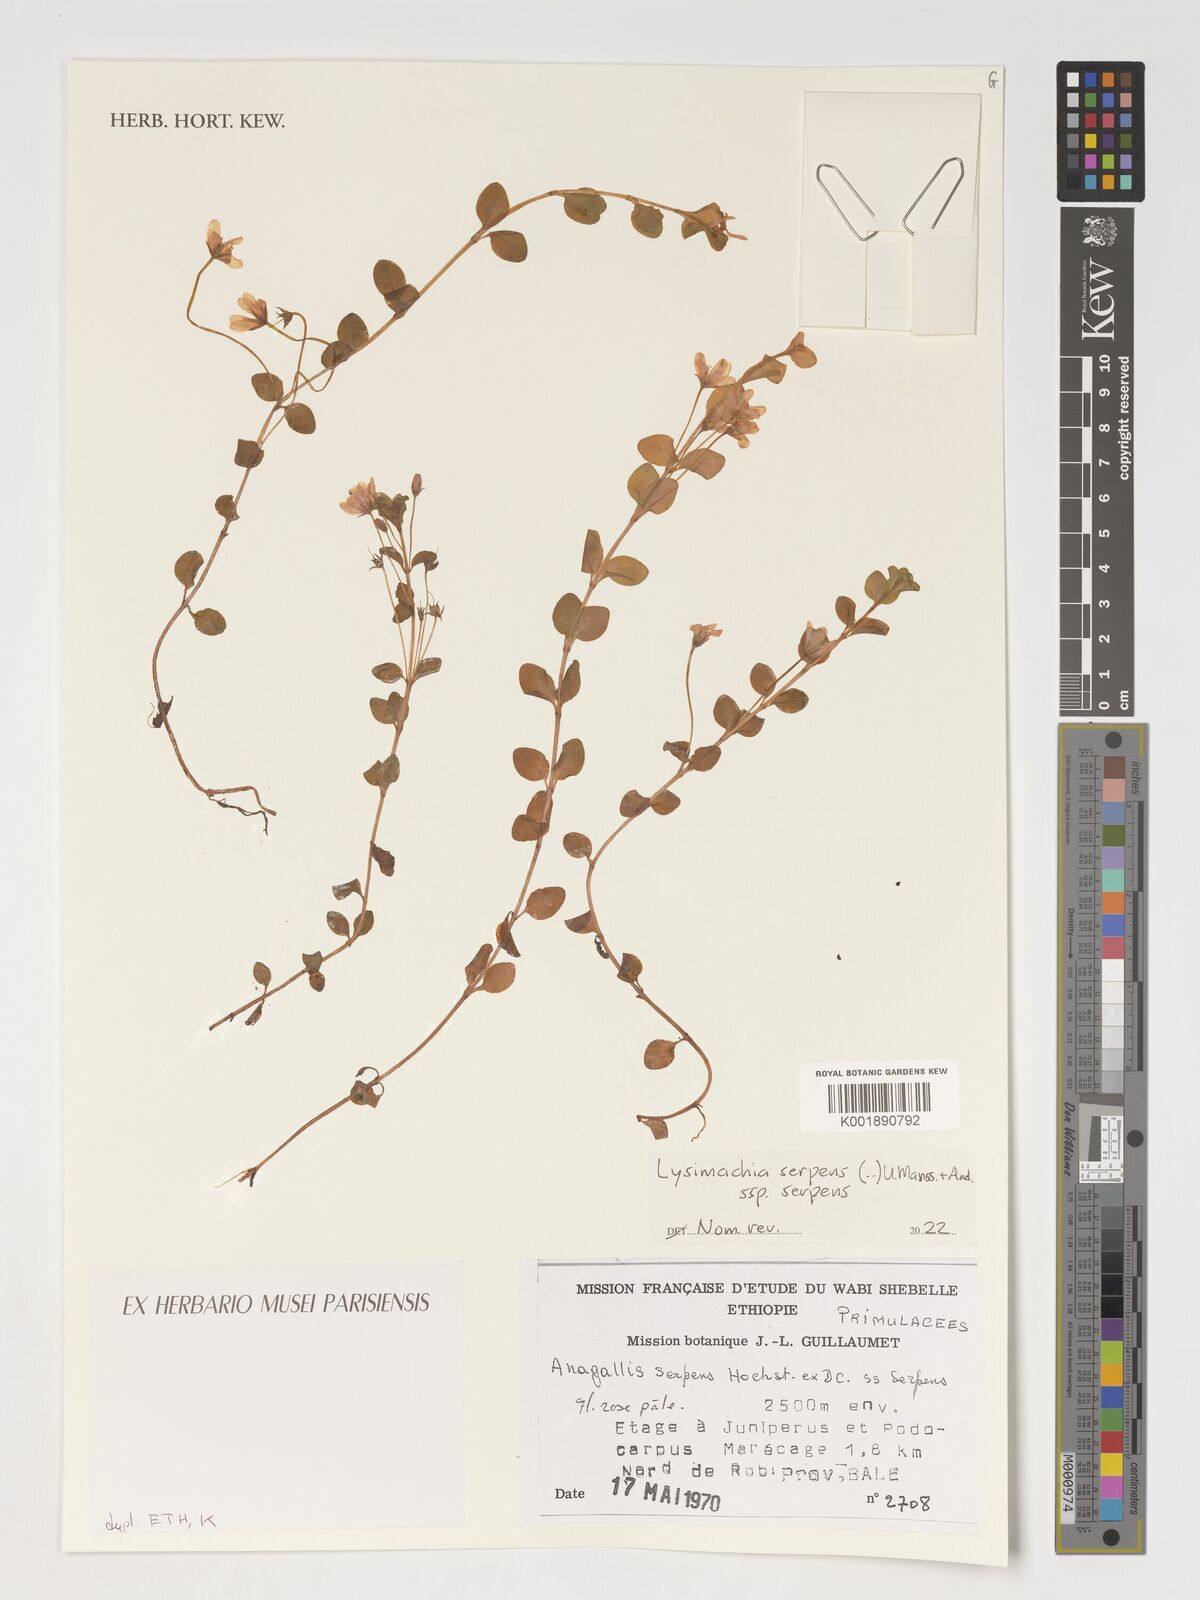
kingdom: Plantae
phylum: Tracheophyta
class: Magnoliopsida
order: Ericales
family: Primulaceae
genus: Lysimachia
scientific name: Lysimachia serpens
